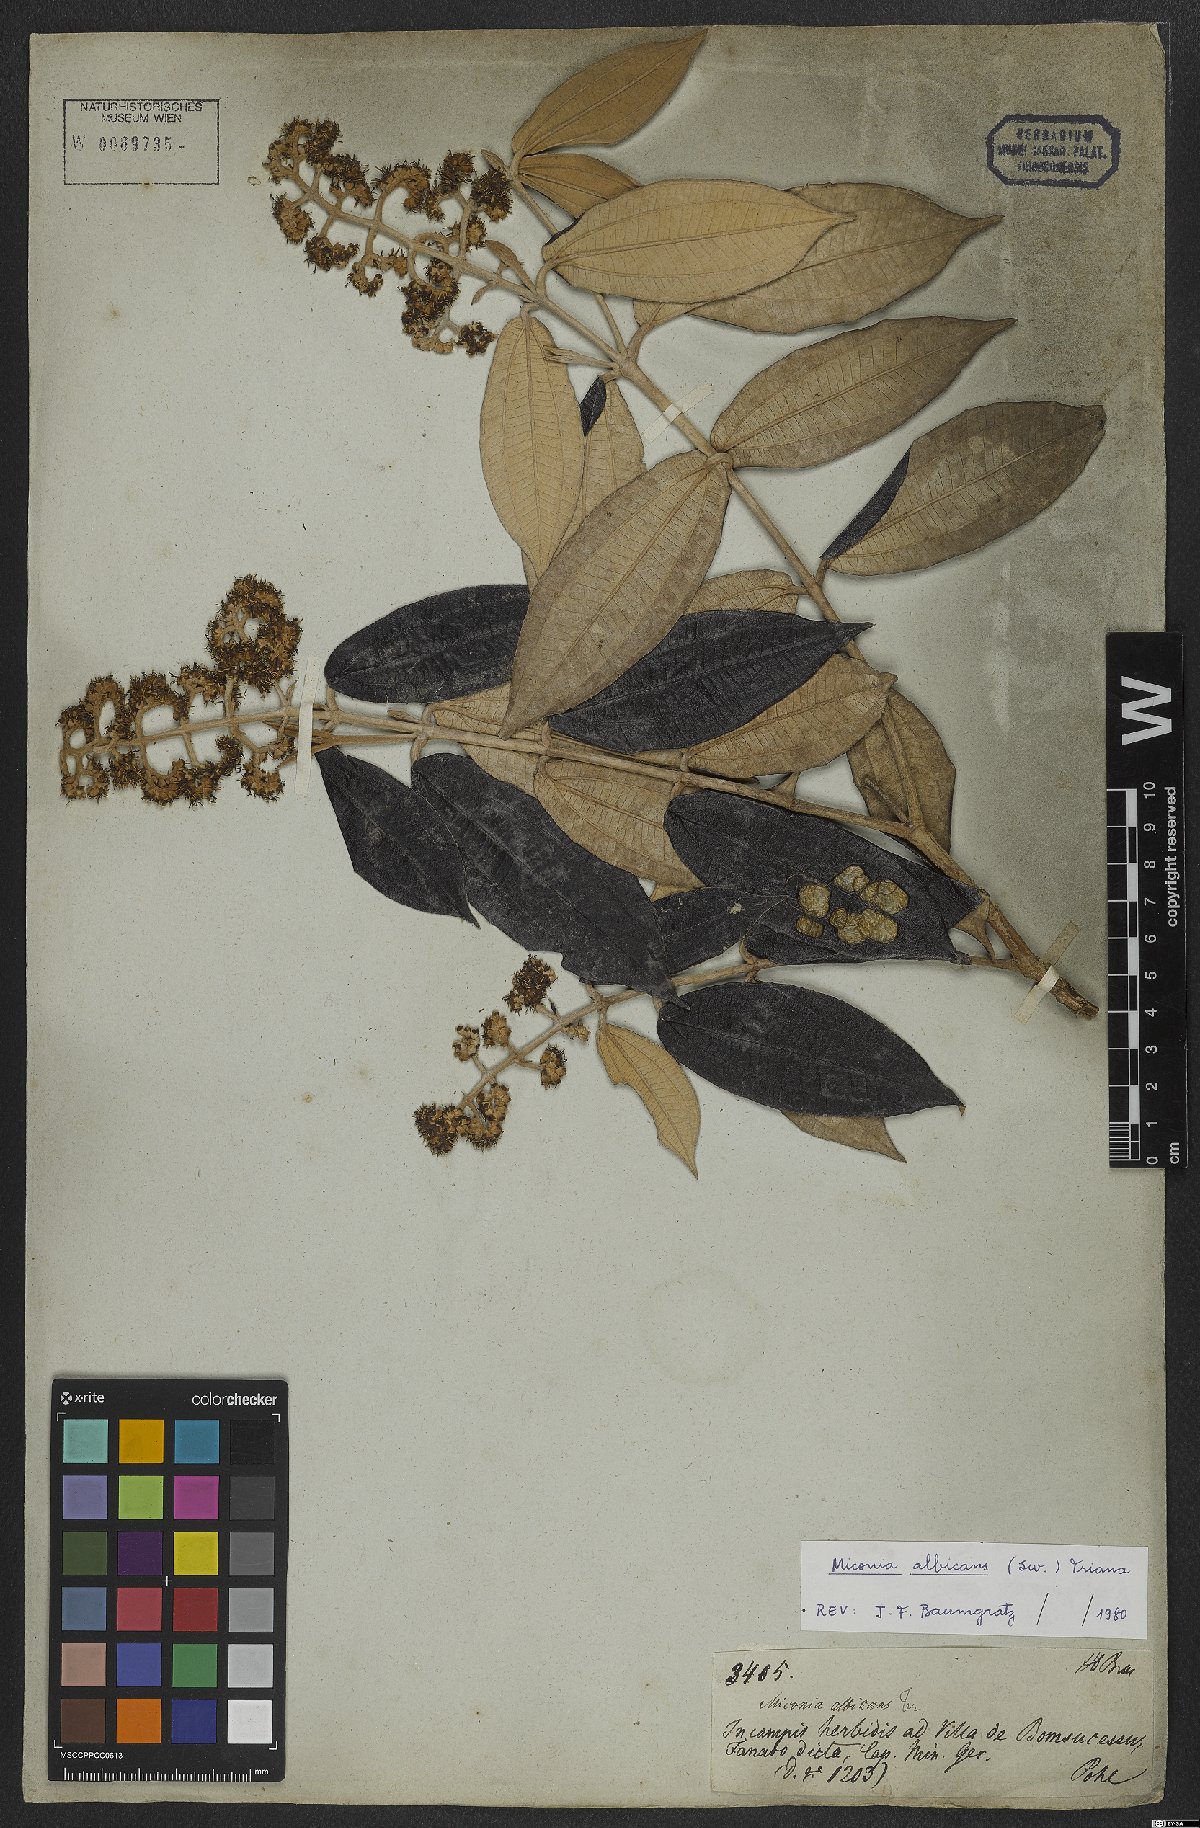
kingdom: Plantae
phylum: Tracheophyta
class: Magnoliopsida
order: Myrtales
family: Melastomataceae
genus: Miconia
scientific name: Miconia albicans
